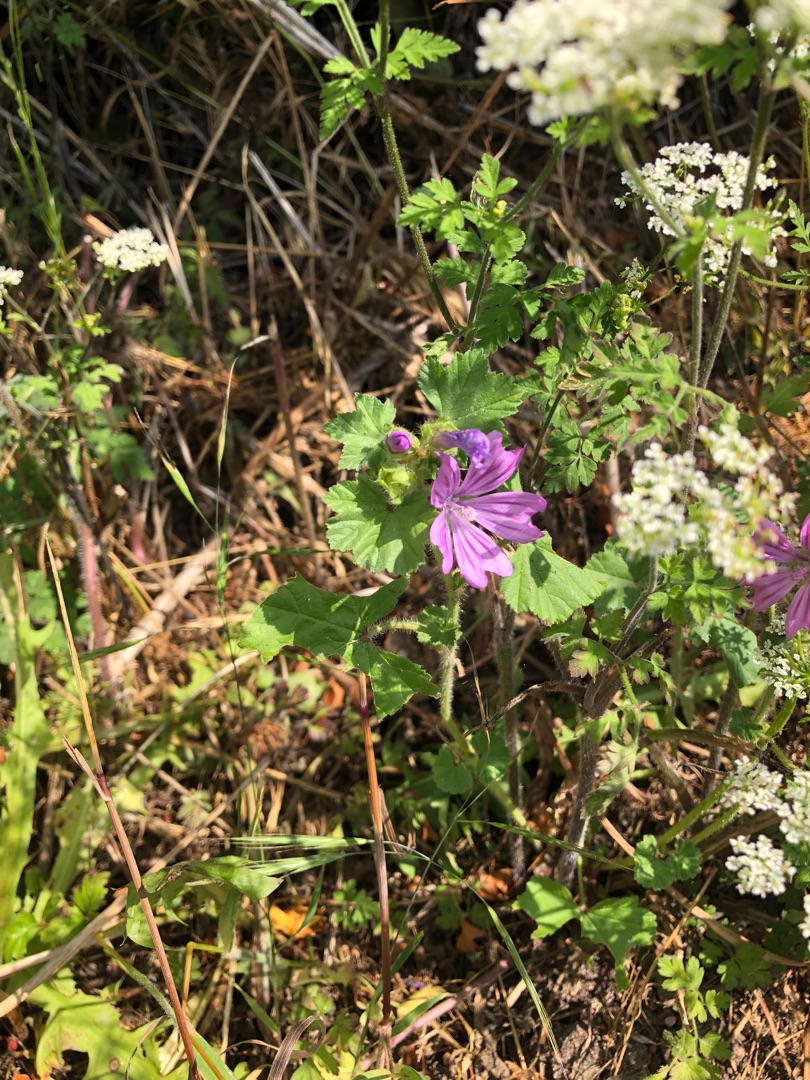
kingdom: Plantae
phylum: Tracheophyta
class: Magnoliopsida
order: Malvales
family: Malvaceae
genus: Malva
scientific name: Malva sylvestris
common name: Almindelig katost
